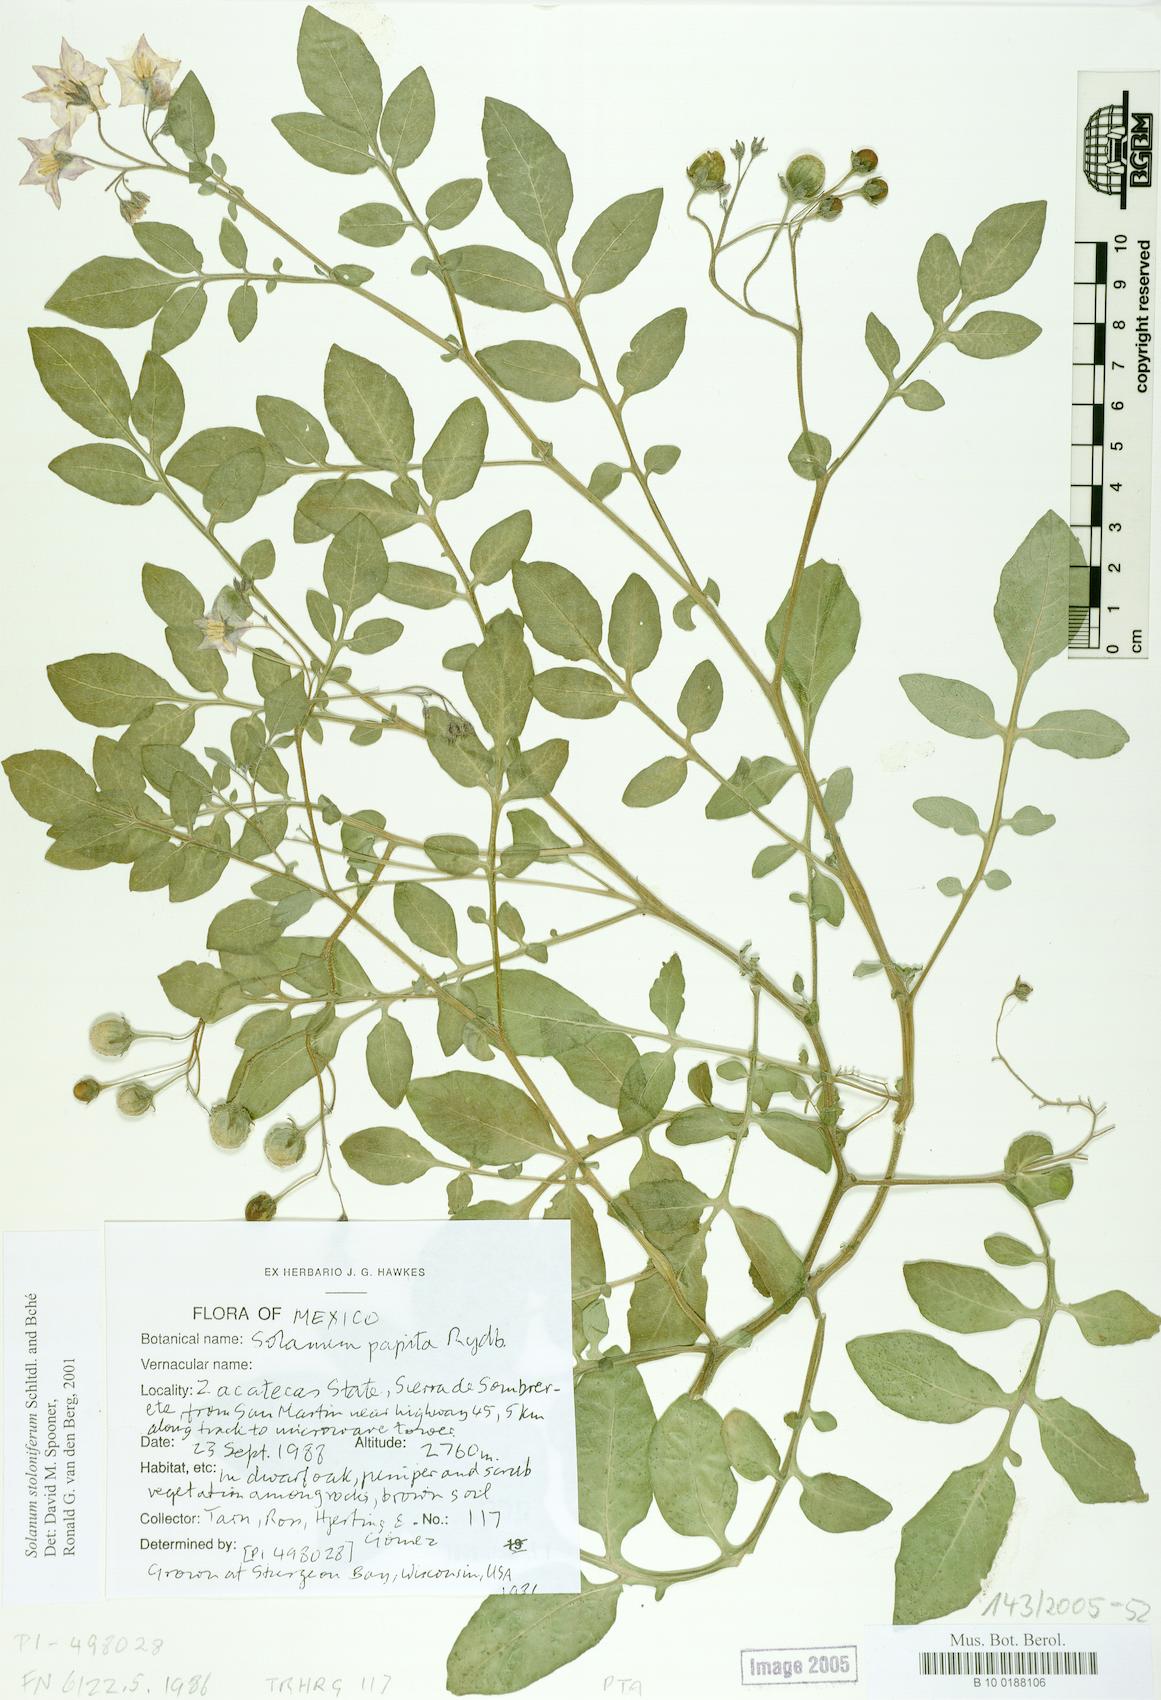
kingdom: Plantae
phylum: Tracheophyta
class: Magnoliopsida
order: Solanales
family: Solanaceae
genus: Solanum
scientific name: Solanum stoloniferum
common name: Fendler's nighshade
